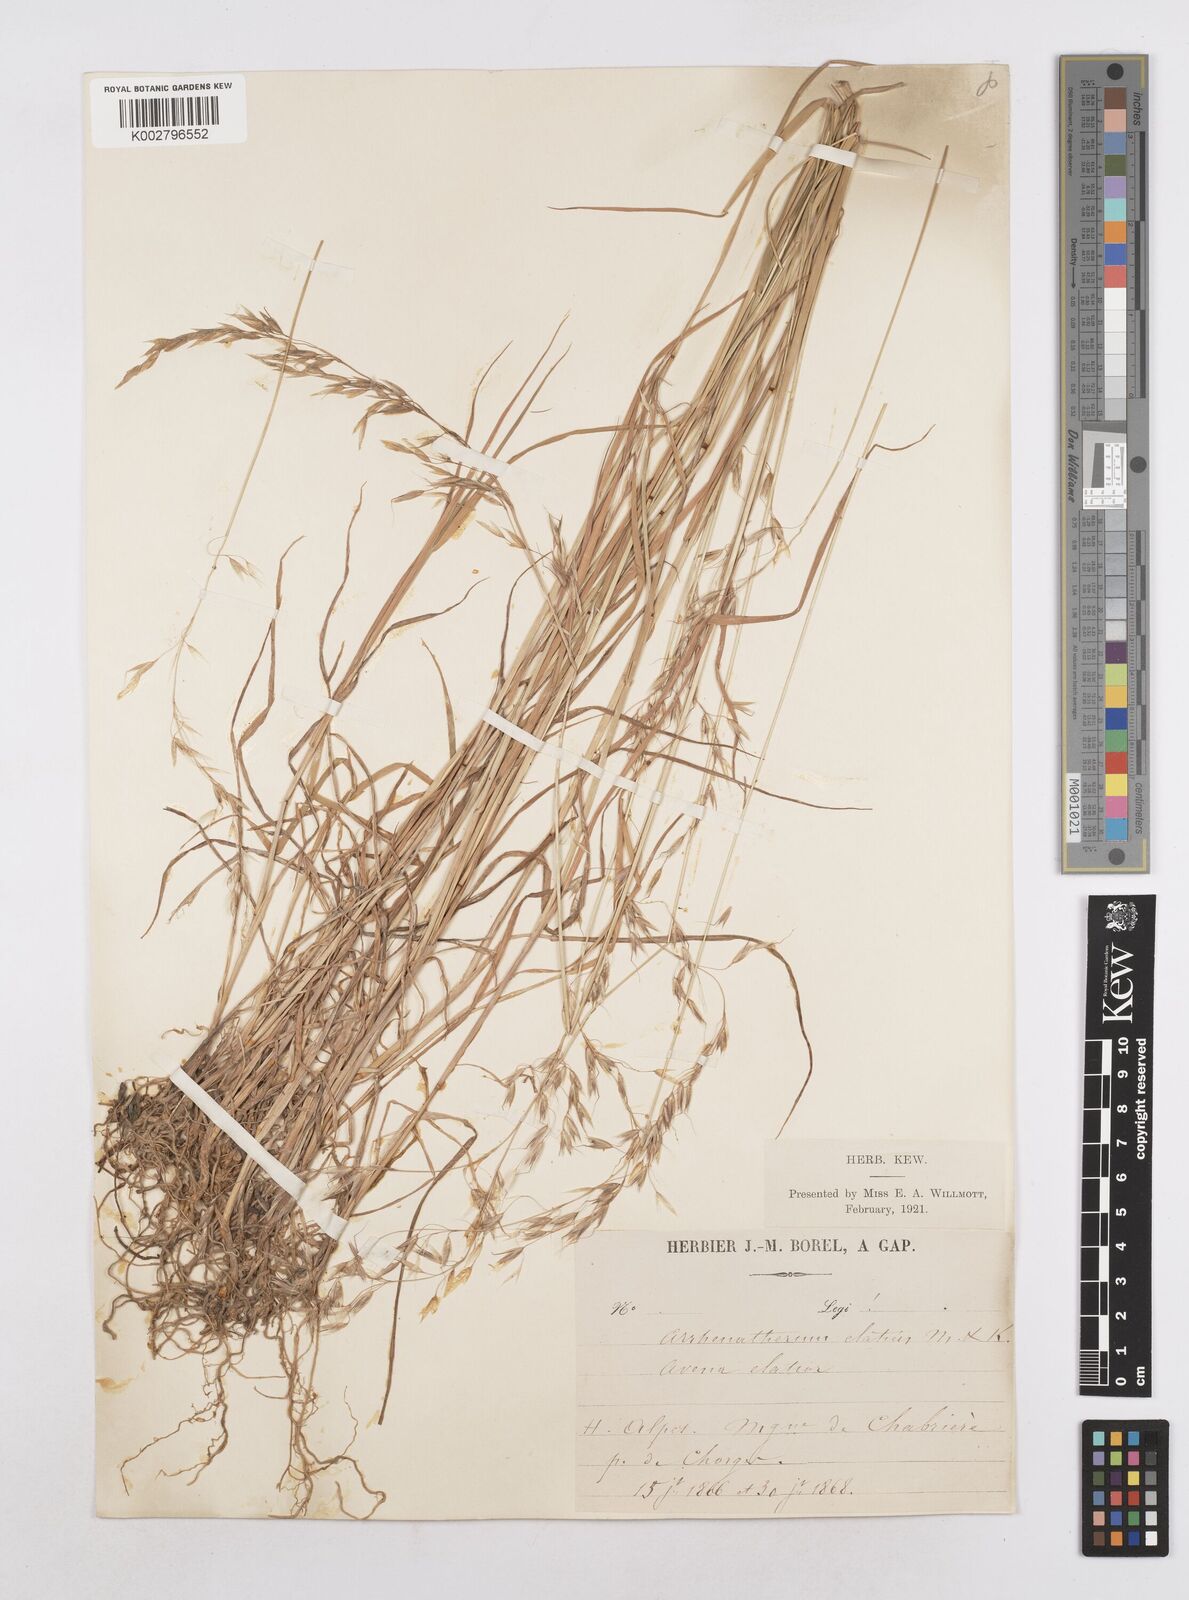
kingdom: Plantae
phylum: Tracheophyta
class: Liliopsida
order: Poales
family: Poaceae
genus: Arrhenatherum
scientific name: Arrhenatherum elatius
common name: Tall oatgrass
